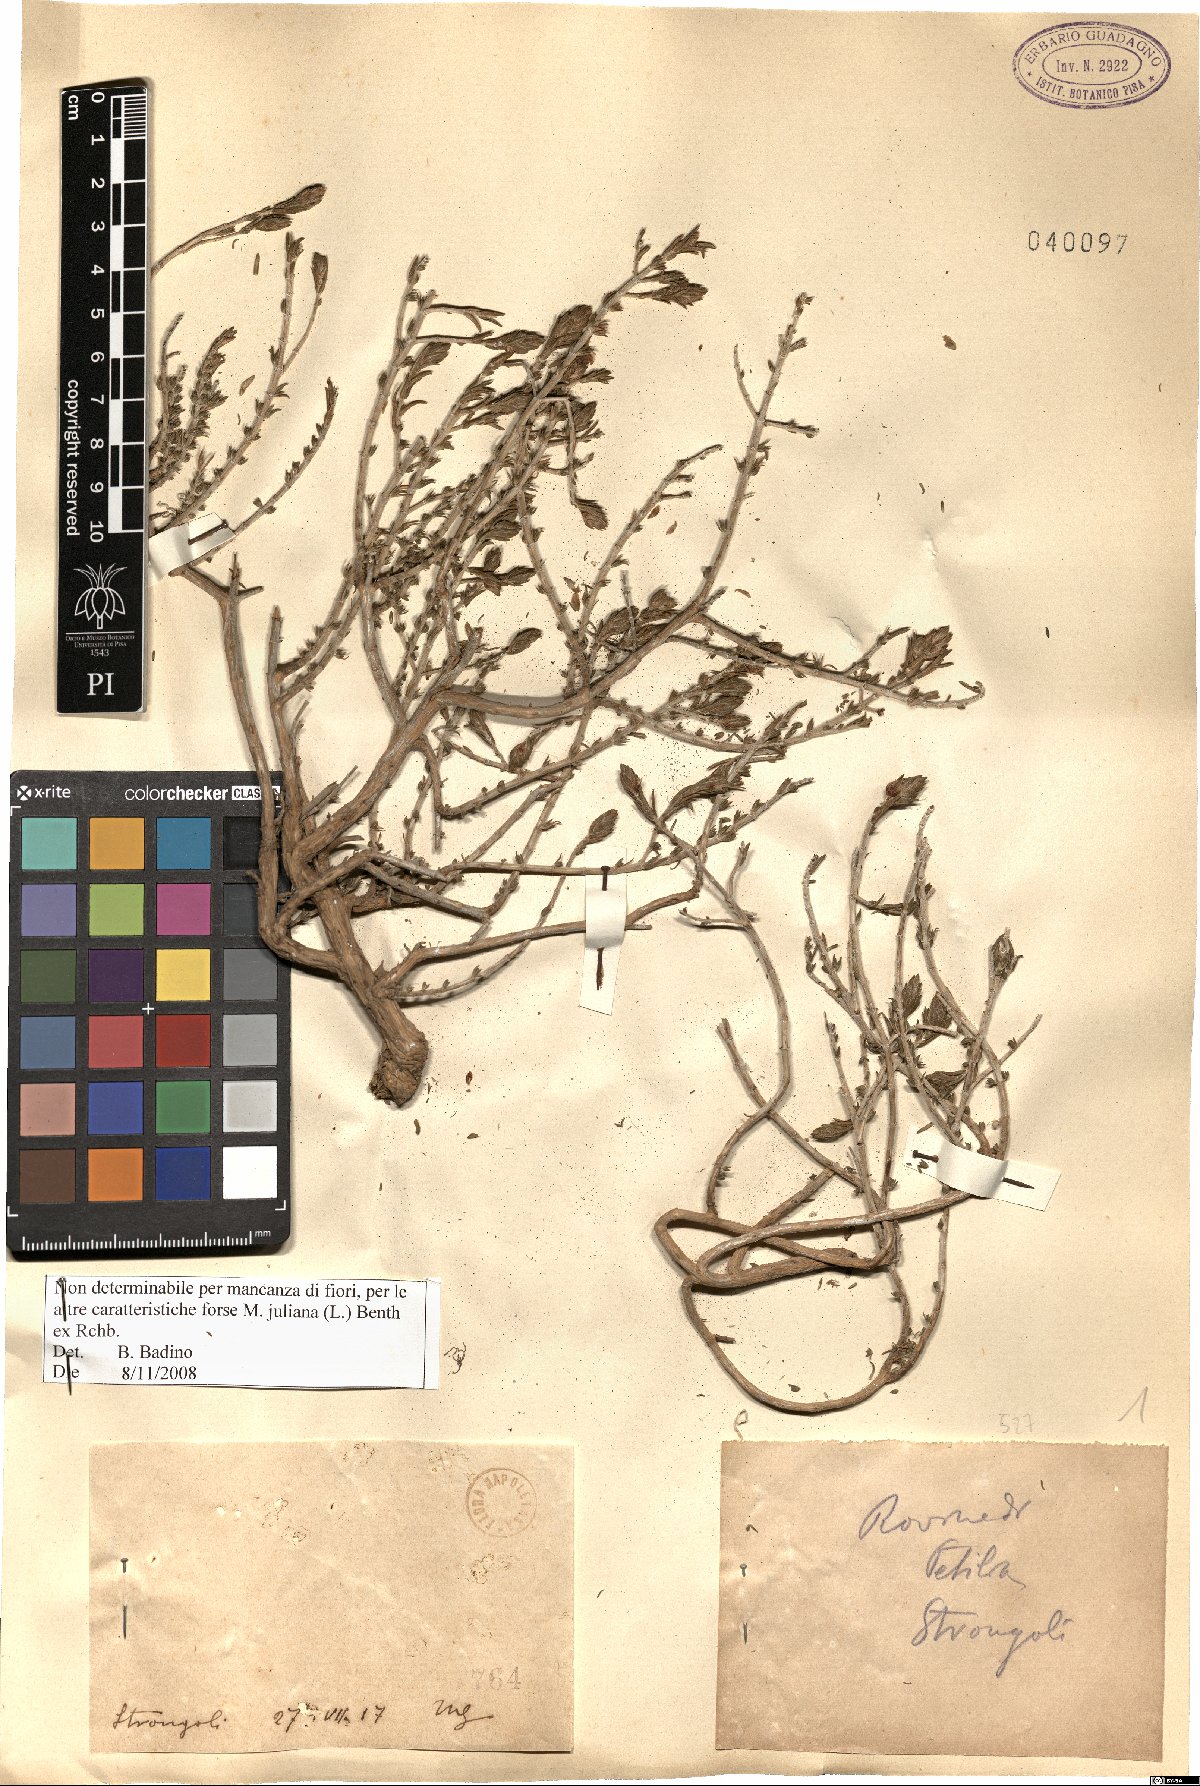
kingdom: Plantae
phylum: Tracheophyta
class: Magnoliopsida
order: Lamiales
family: Lamiaceae
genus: Micromeria
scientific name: Micromeria juliana
